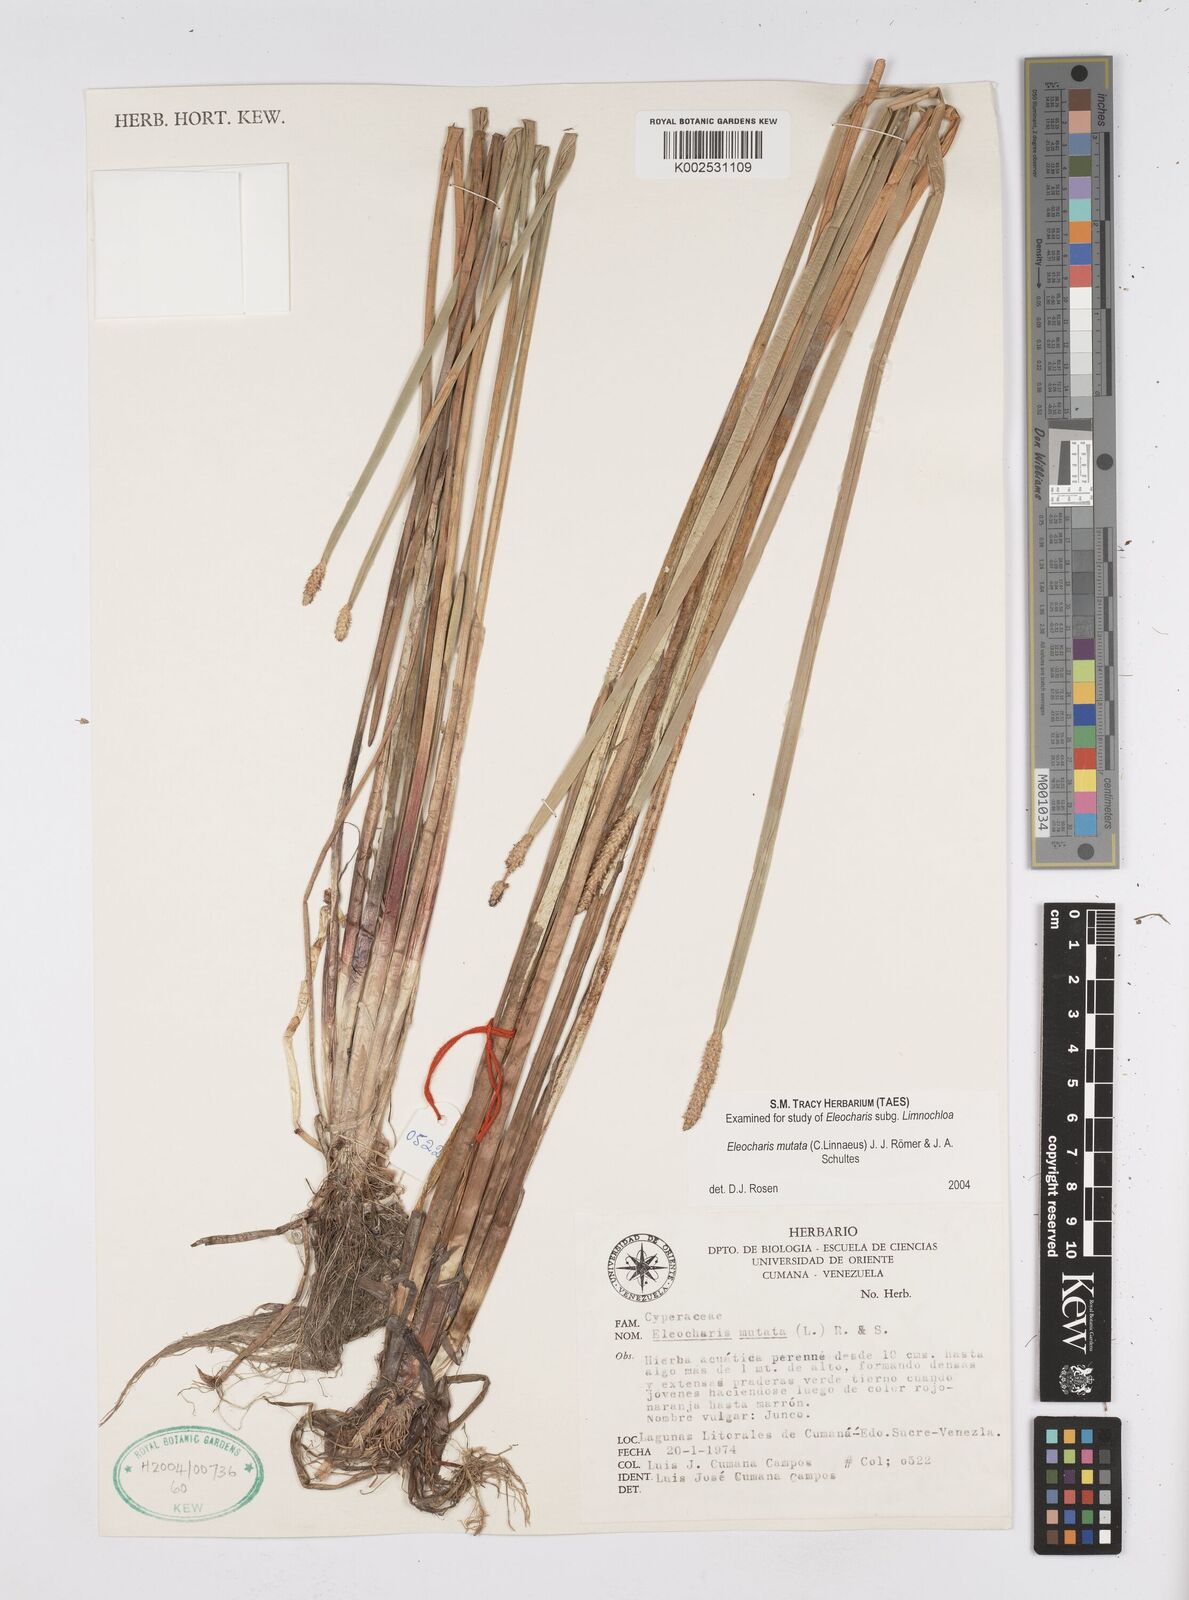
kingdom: Plantae
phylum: Tracheophyta
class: Liliopsida
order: Poales
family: Cyperaceae
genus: Eleocharis
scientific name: Eleocharis mutata
